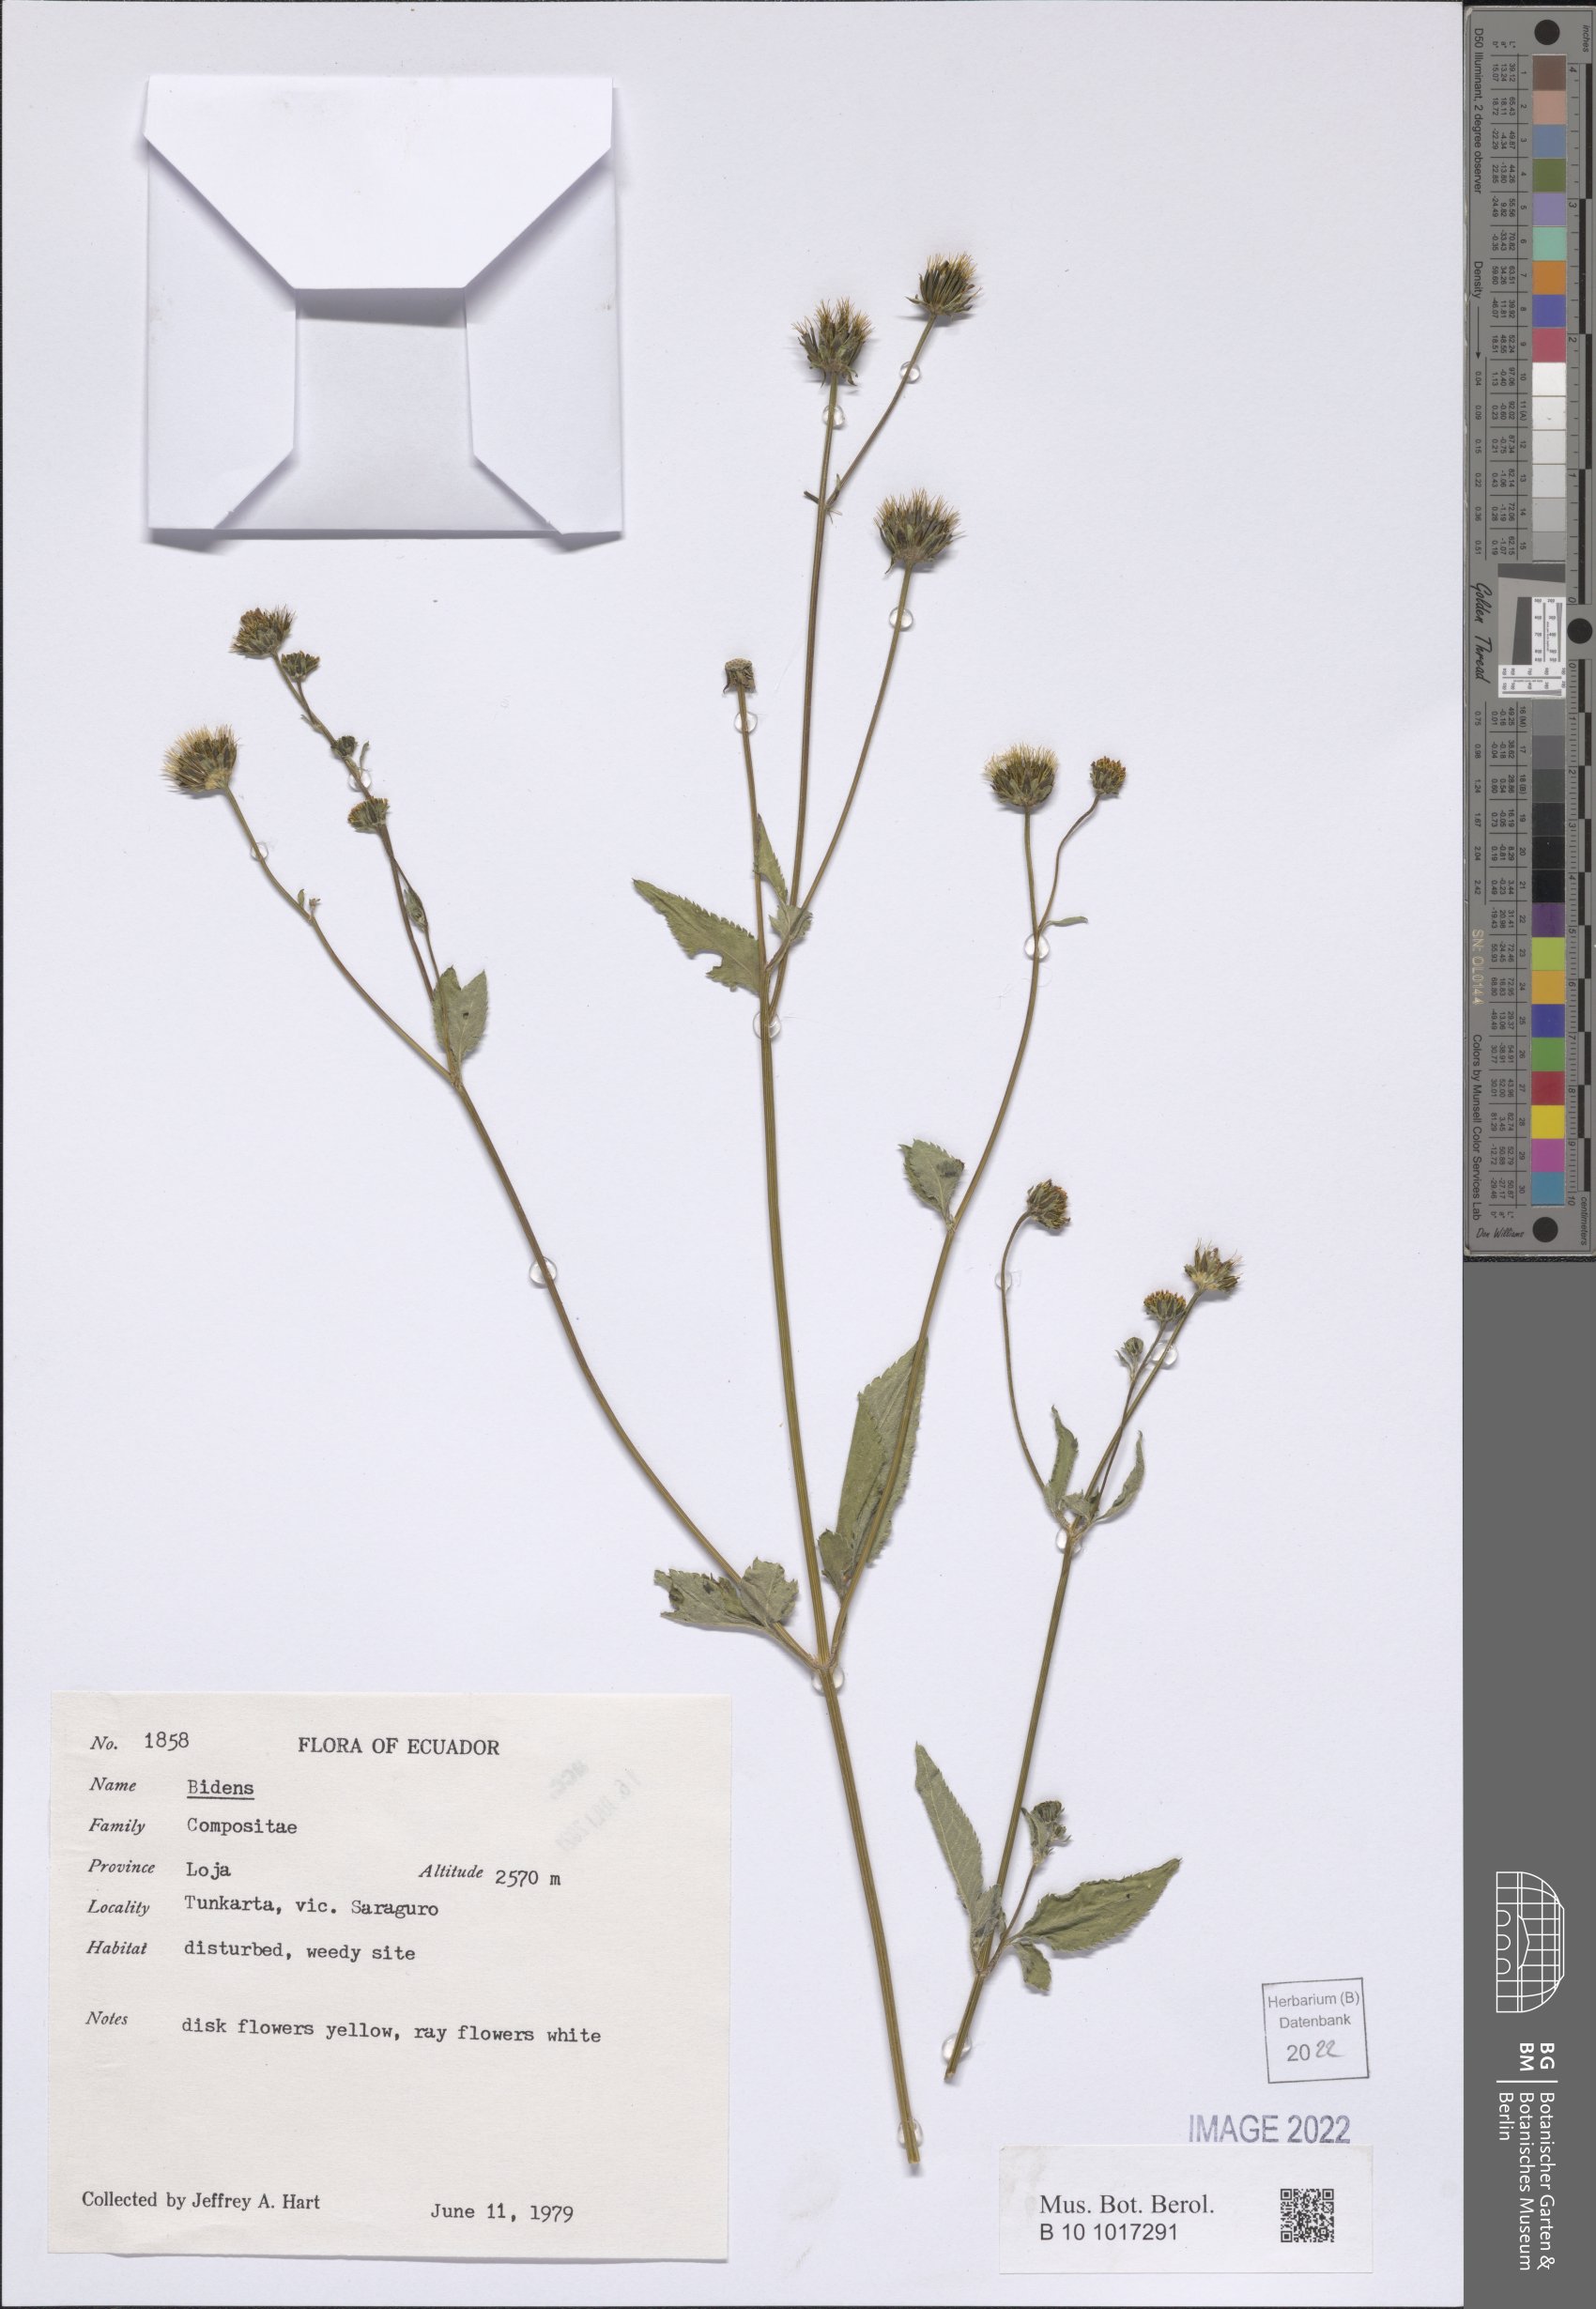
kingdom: Plantae
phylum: Tracheophyta
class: Magnoliopsida
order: Asterales
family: Asteraceae
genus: Bidens
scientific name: Bidens
